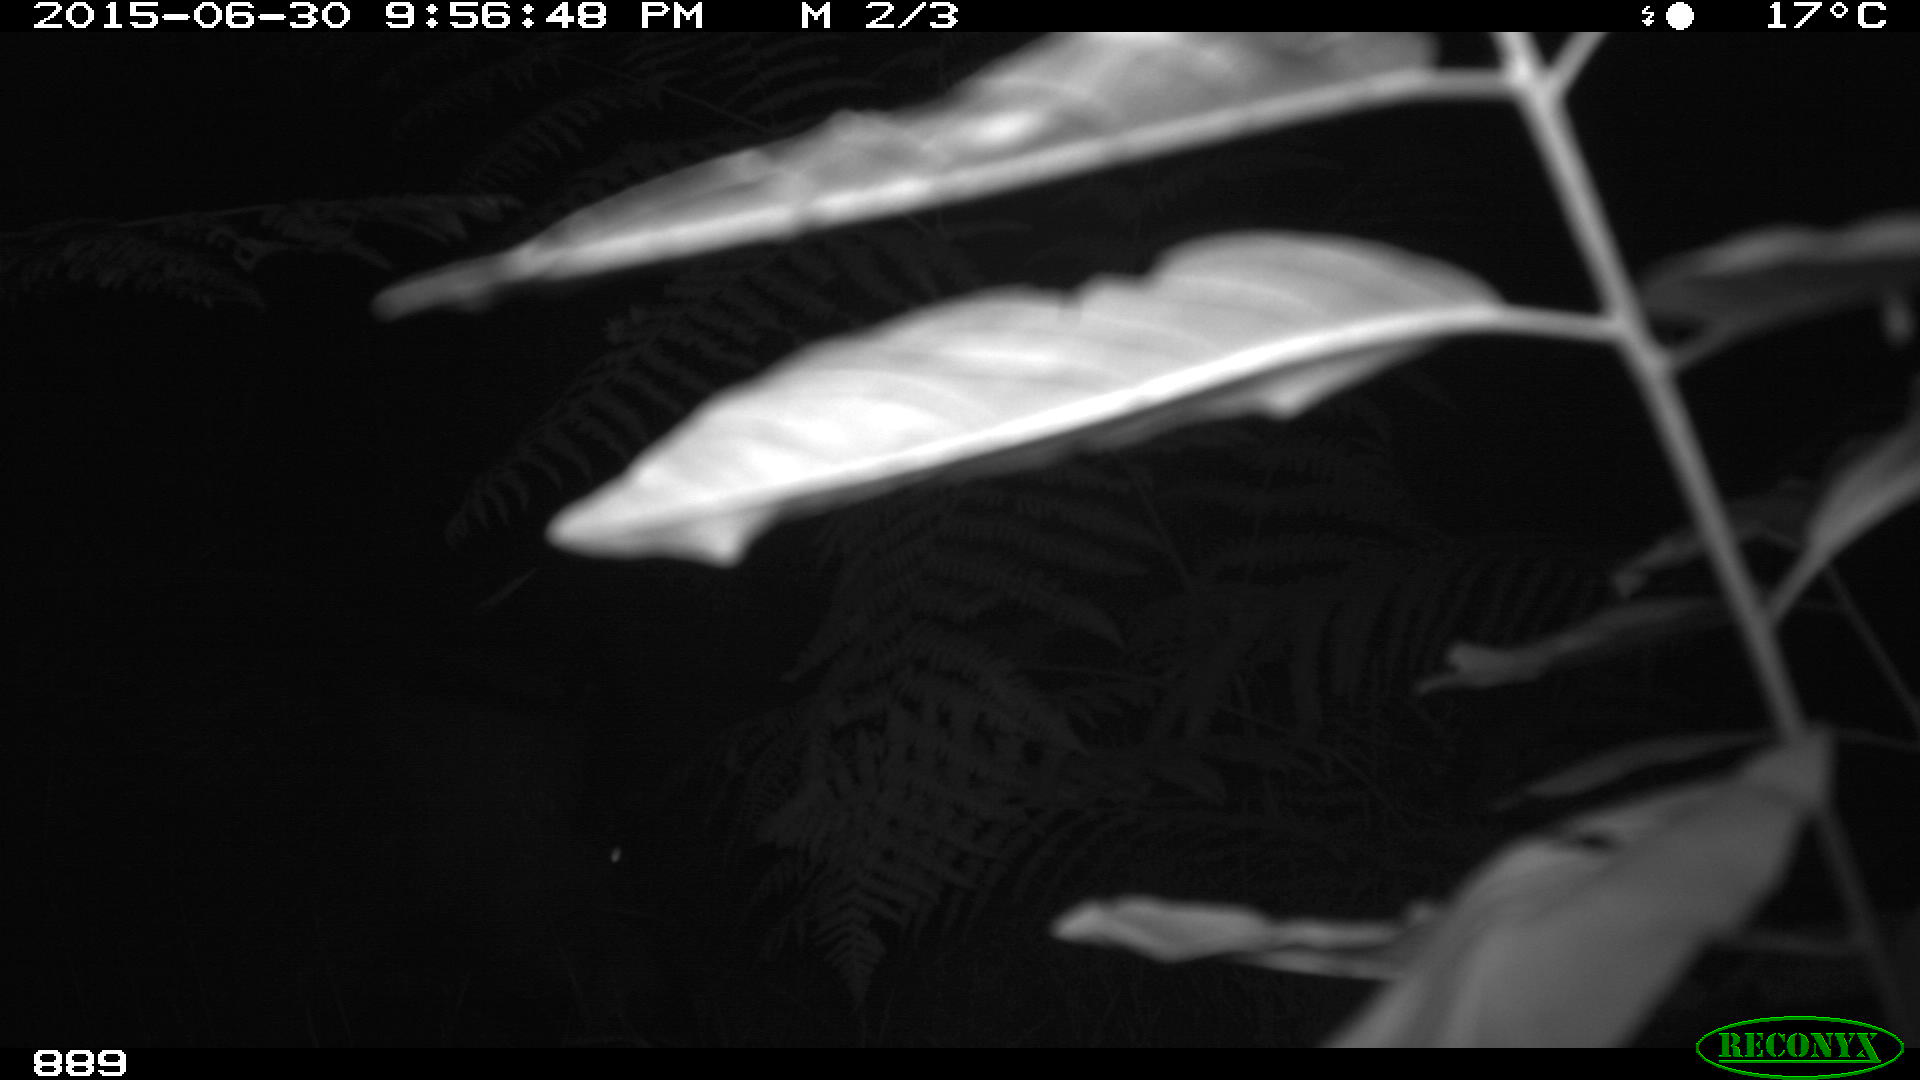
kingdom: Animalia
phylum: Chordata
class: Mammalia
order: Artiodactyla
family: Suidae
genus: Sus
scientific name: Sus scrofa
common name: Wild boar
